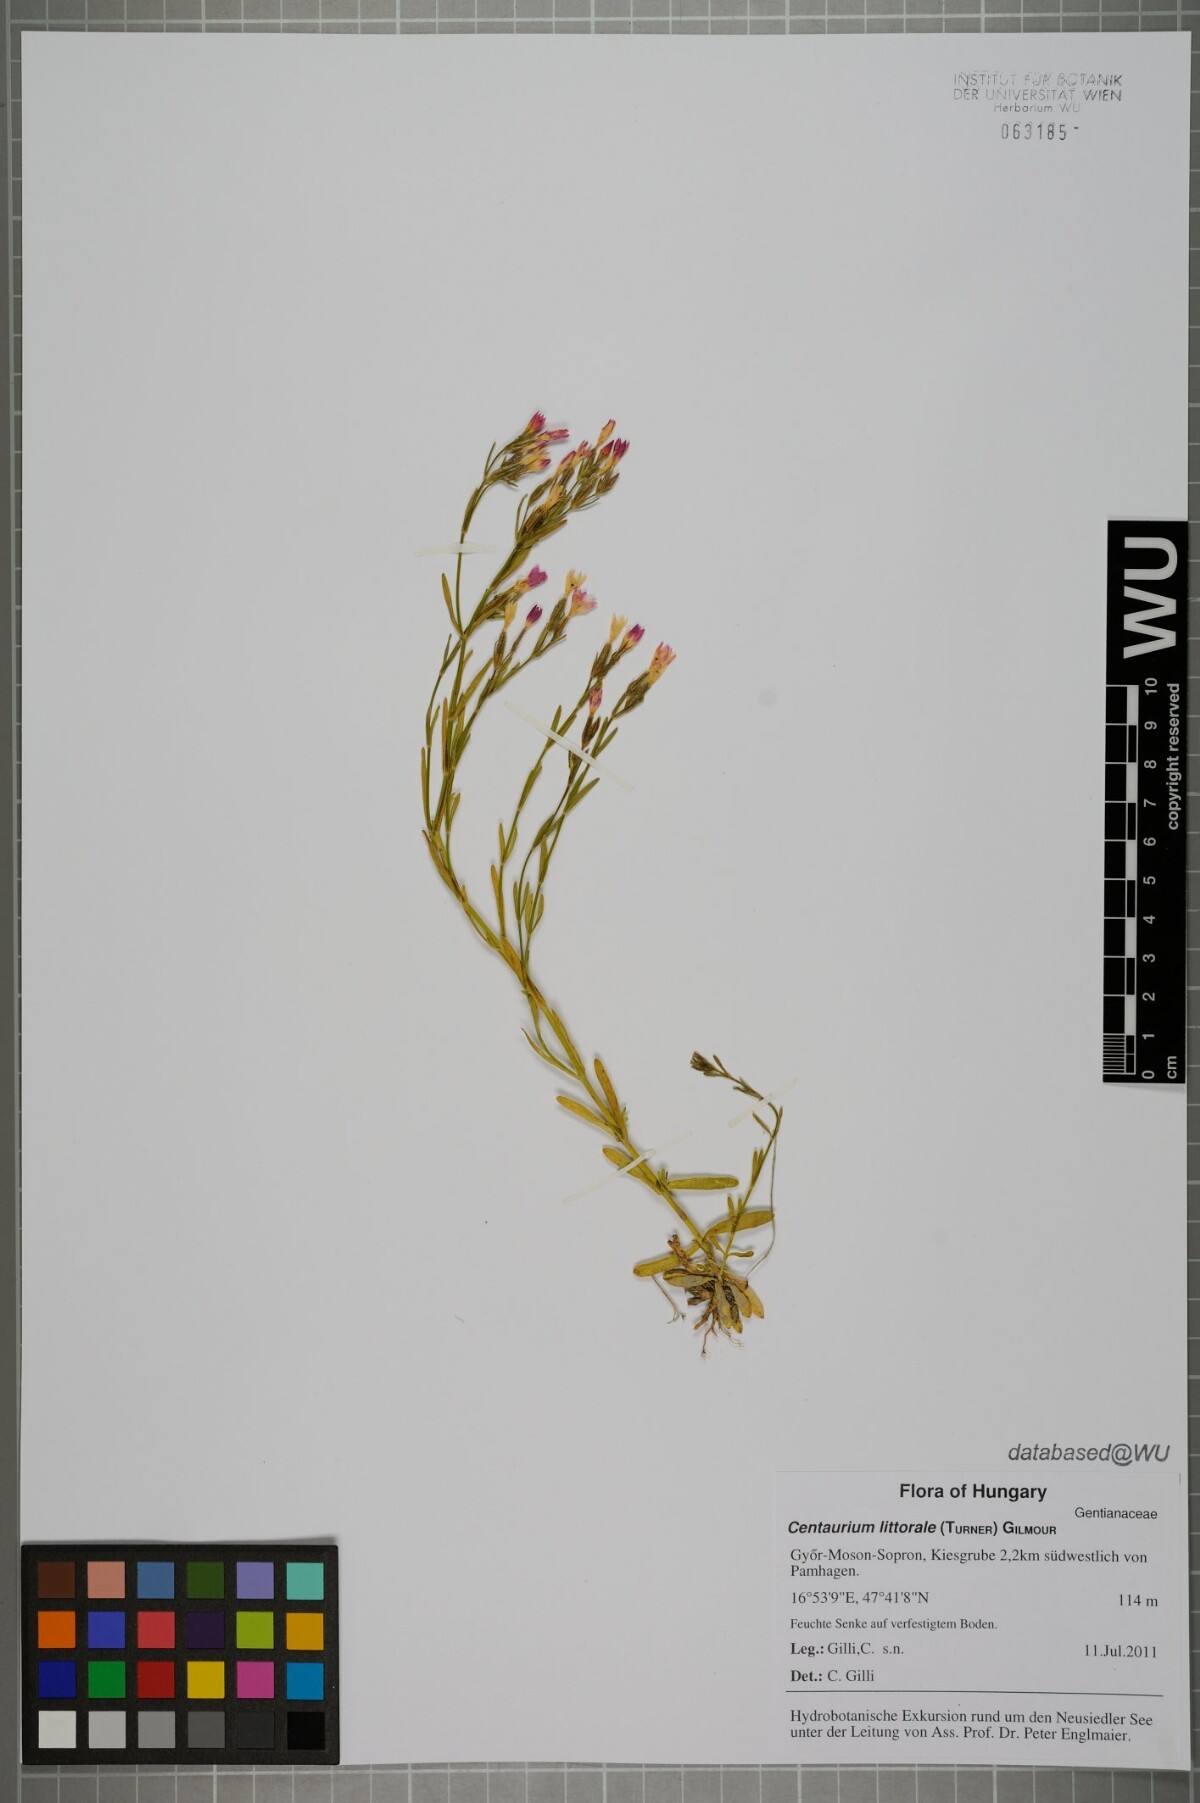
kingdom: Plantae
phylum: Tracheophyta
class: Magnoliopsida
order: Gentianales
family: Gentianaceae
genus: Centaurium
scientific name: Centaurium littorale
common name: Seaside centaury
